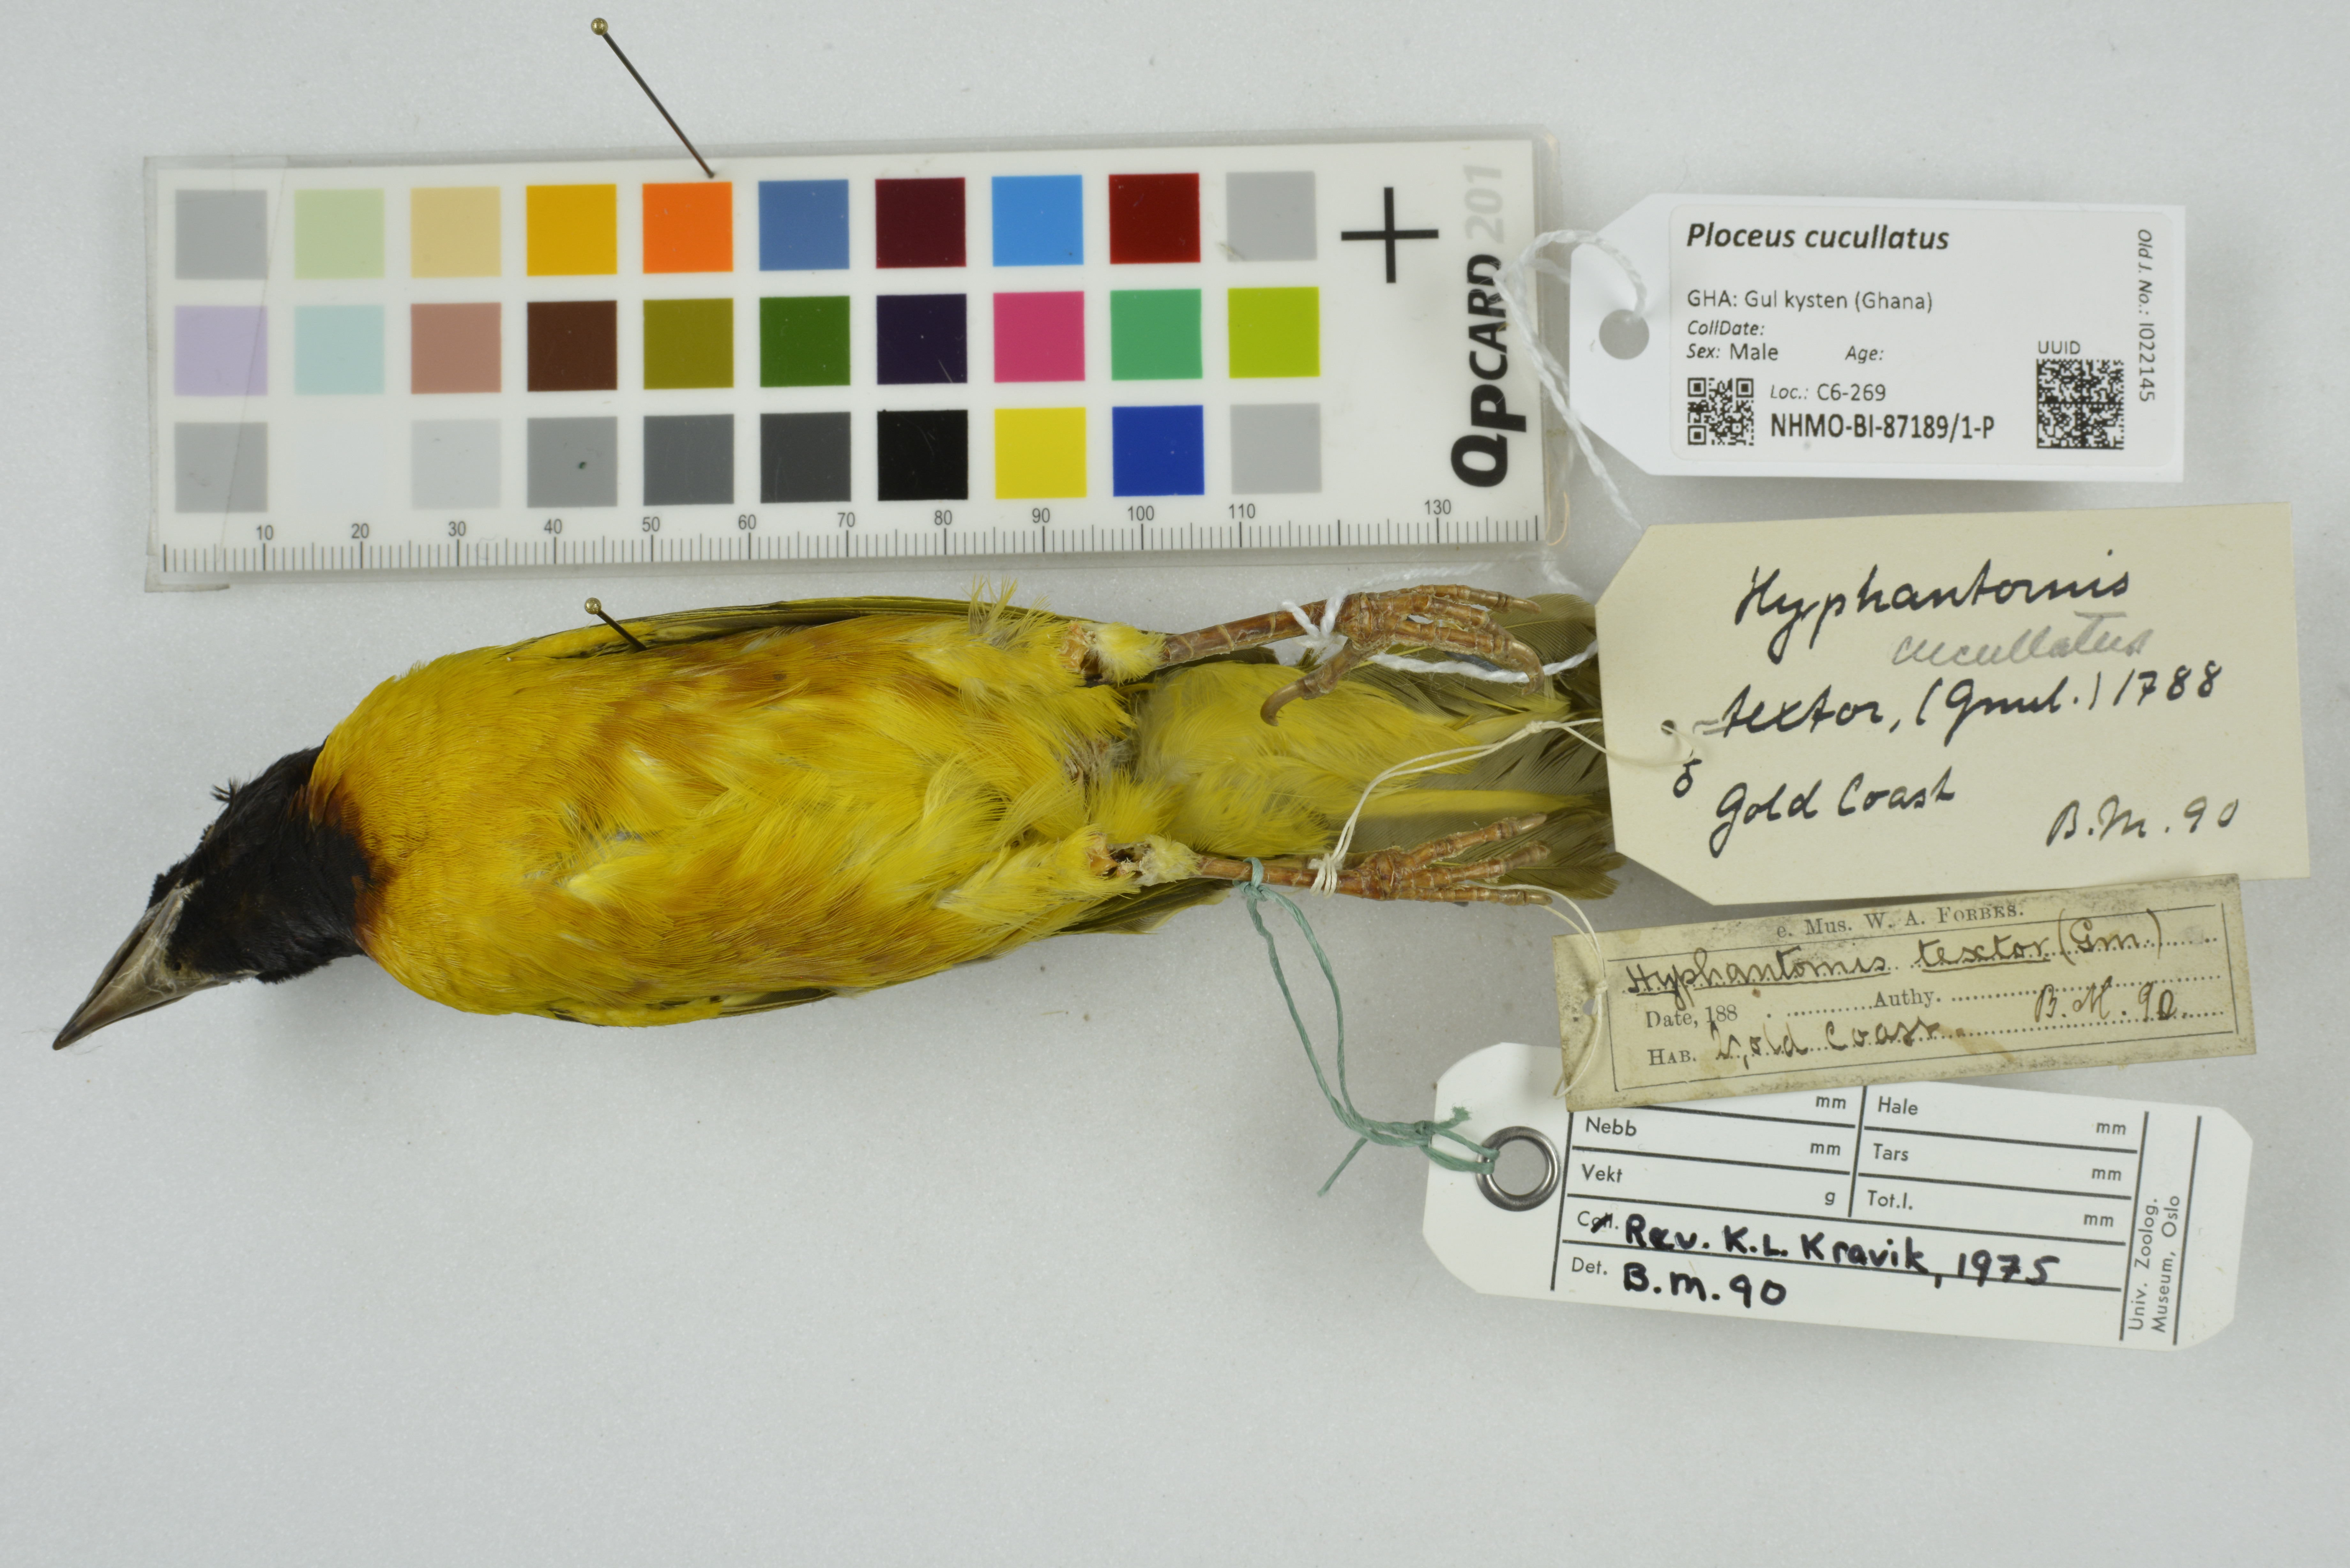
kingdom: Animalia
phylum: Chordata
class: Aves
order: Passeriformes
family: Ploceidae
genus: Ploceus
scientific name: Ploceus cucullatus
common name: Village weaver
